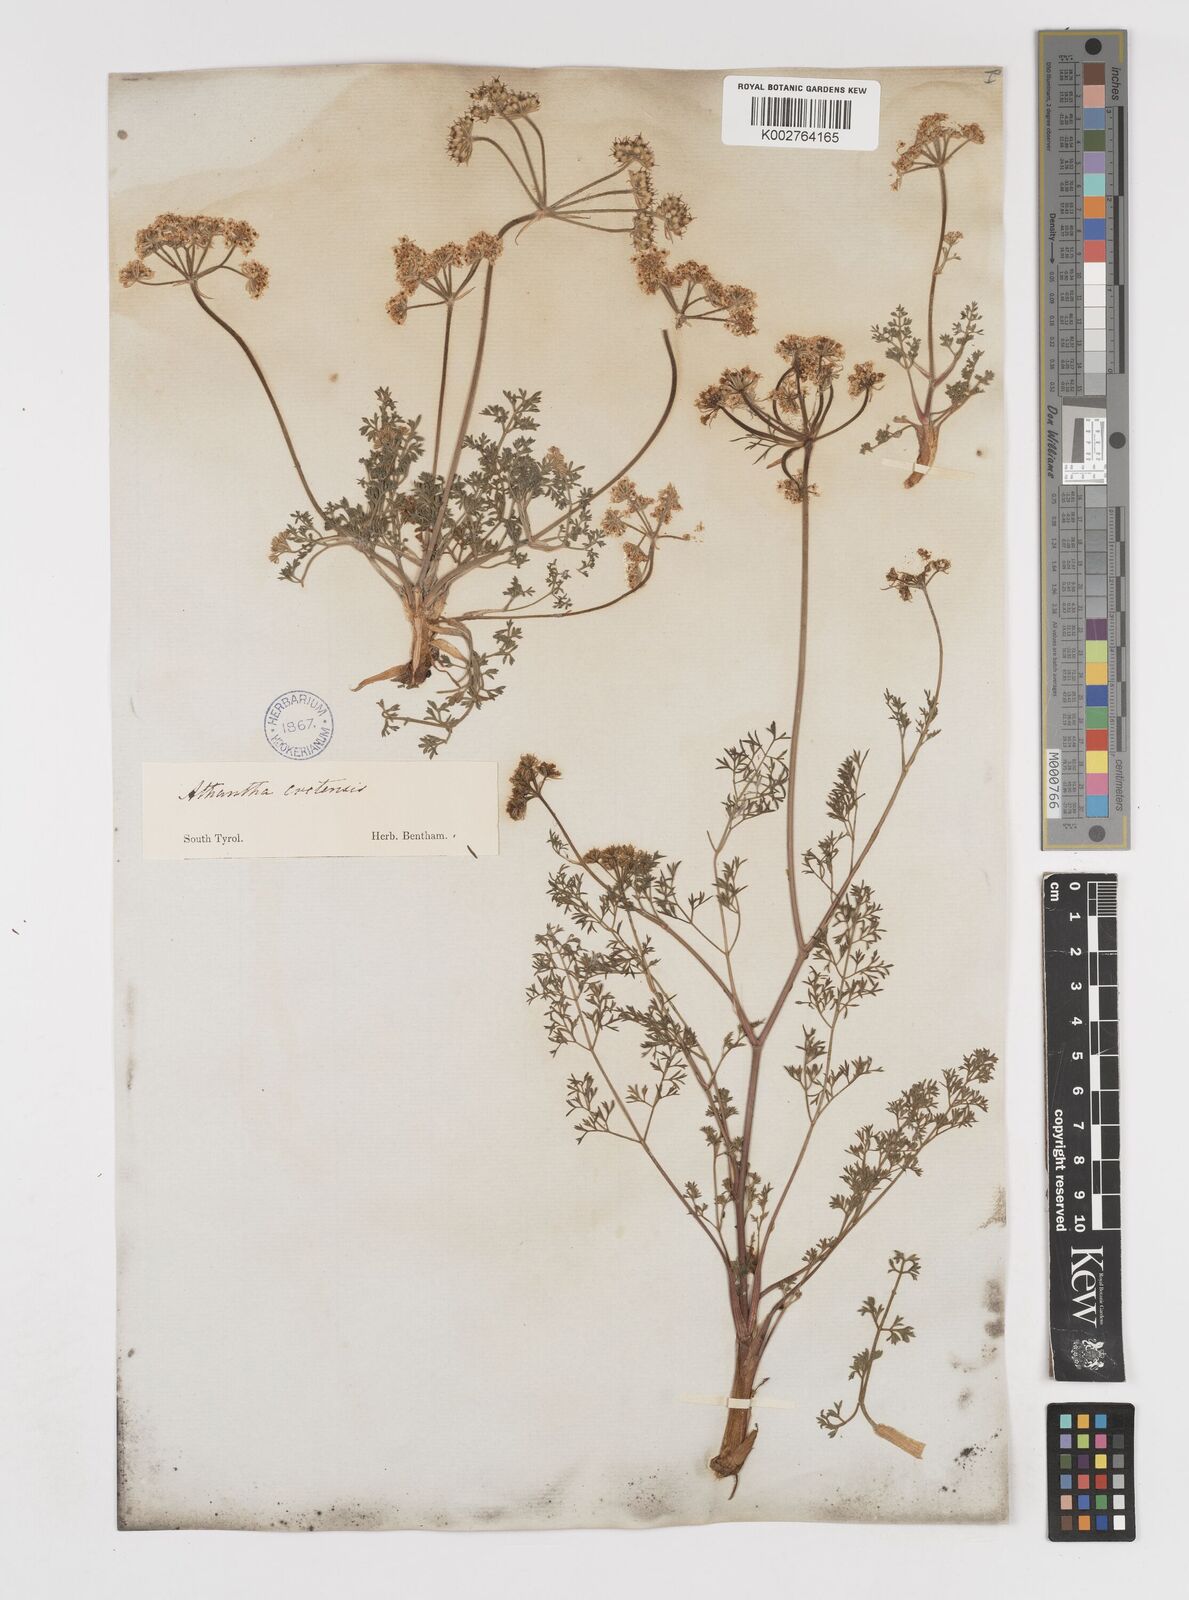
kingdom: Plantae
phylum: Tracheophyta
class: Magnoliopsida
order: Apiales
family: Apiaceae
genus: Athamanta
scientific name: Athamanta cretensis
